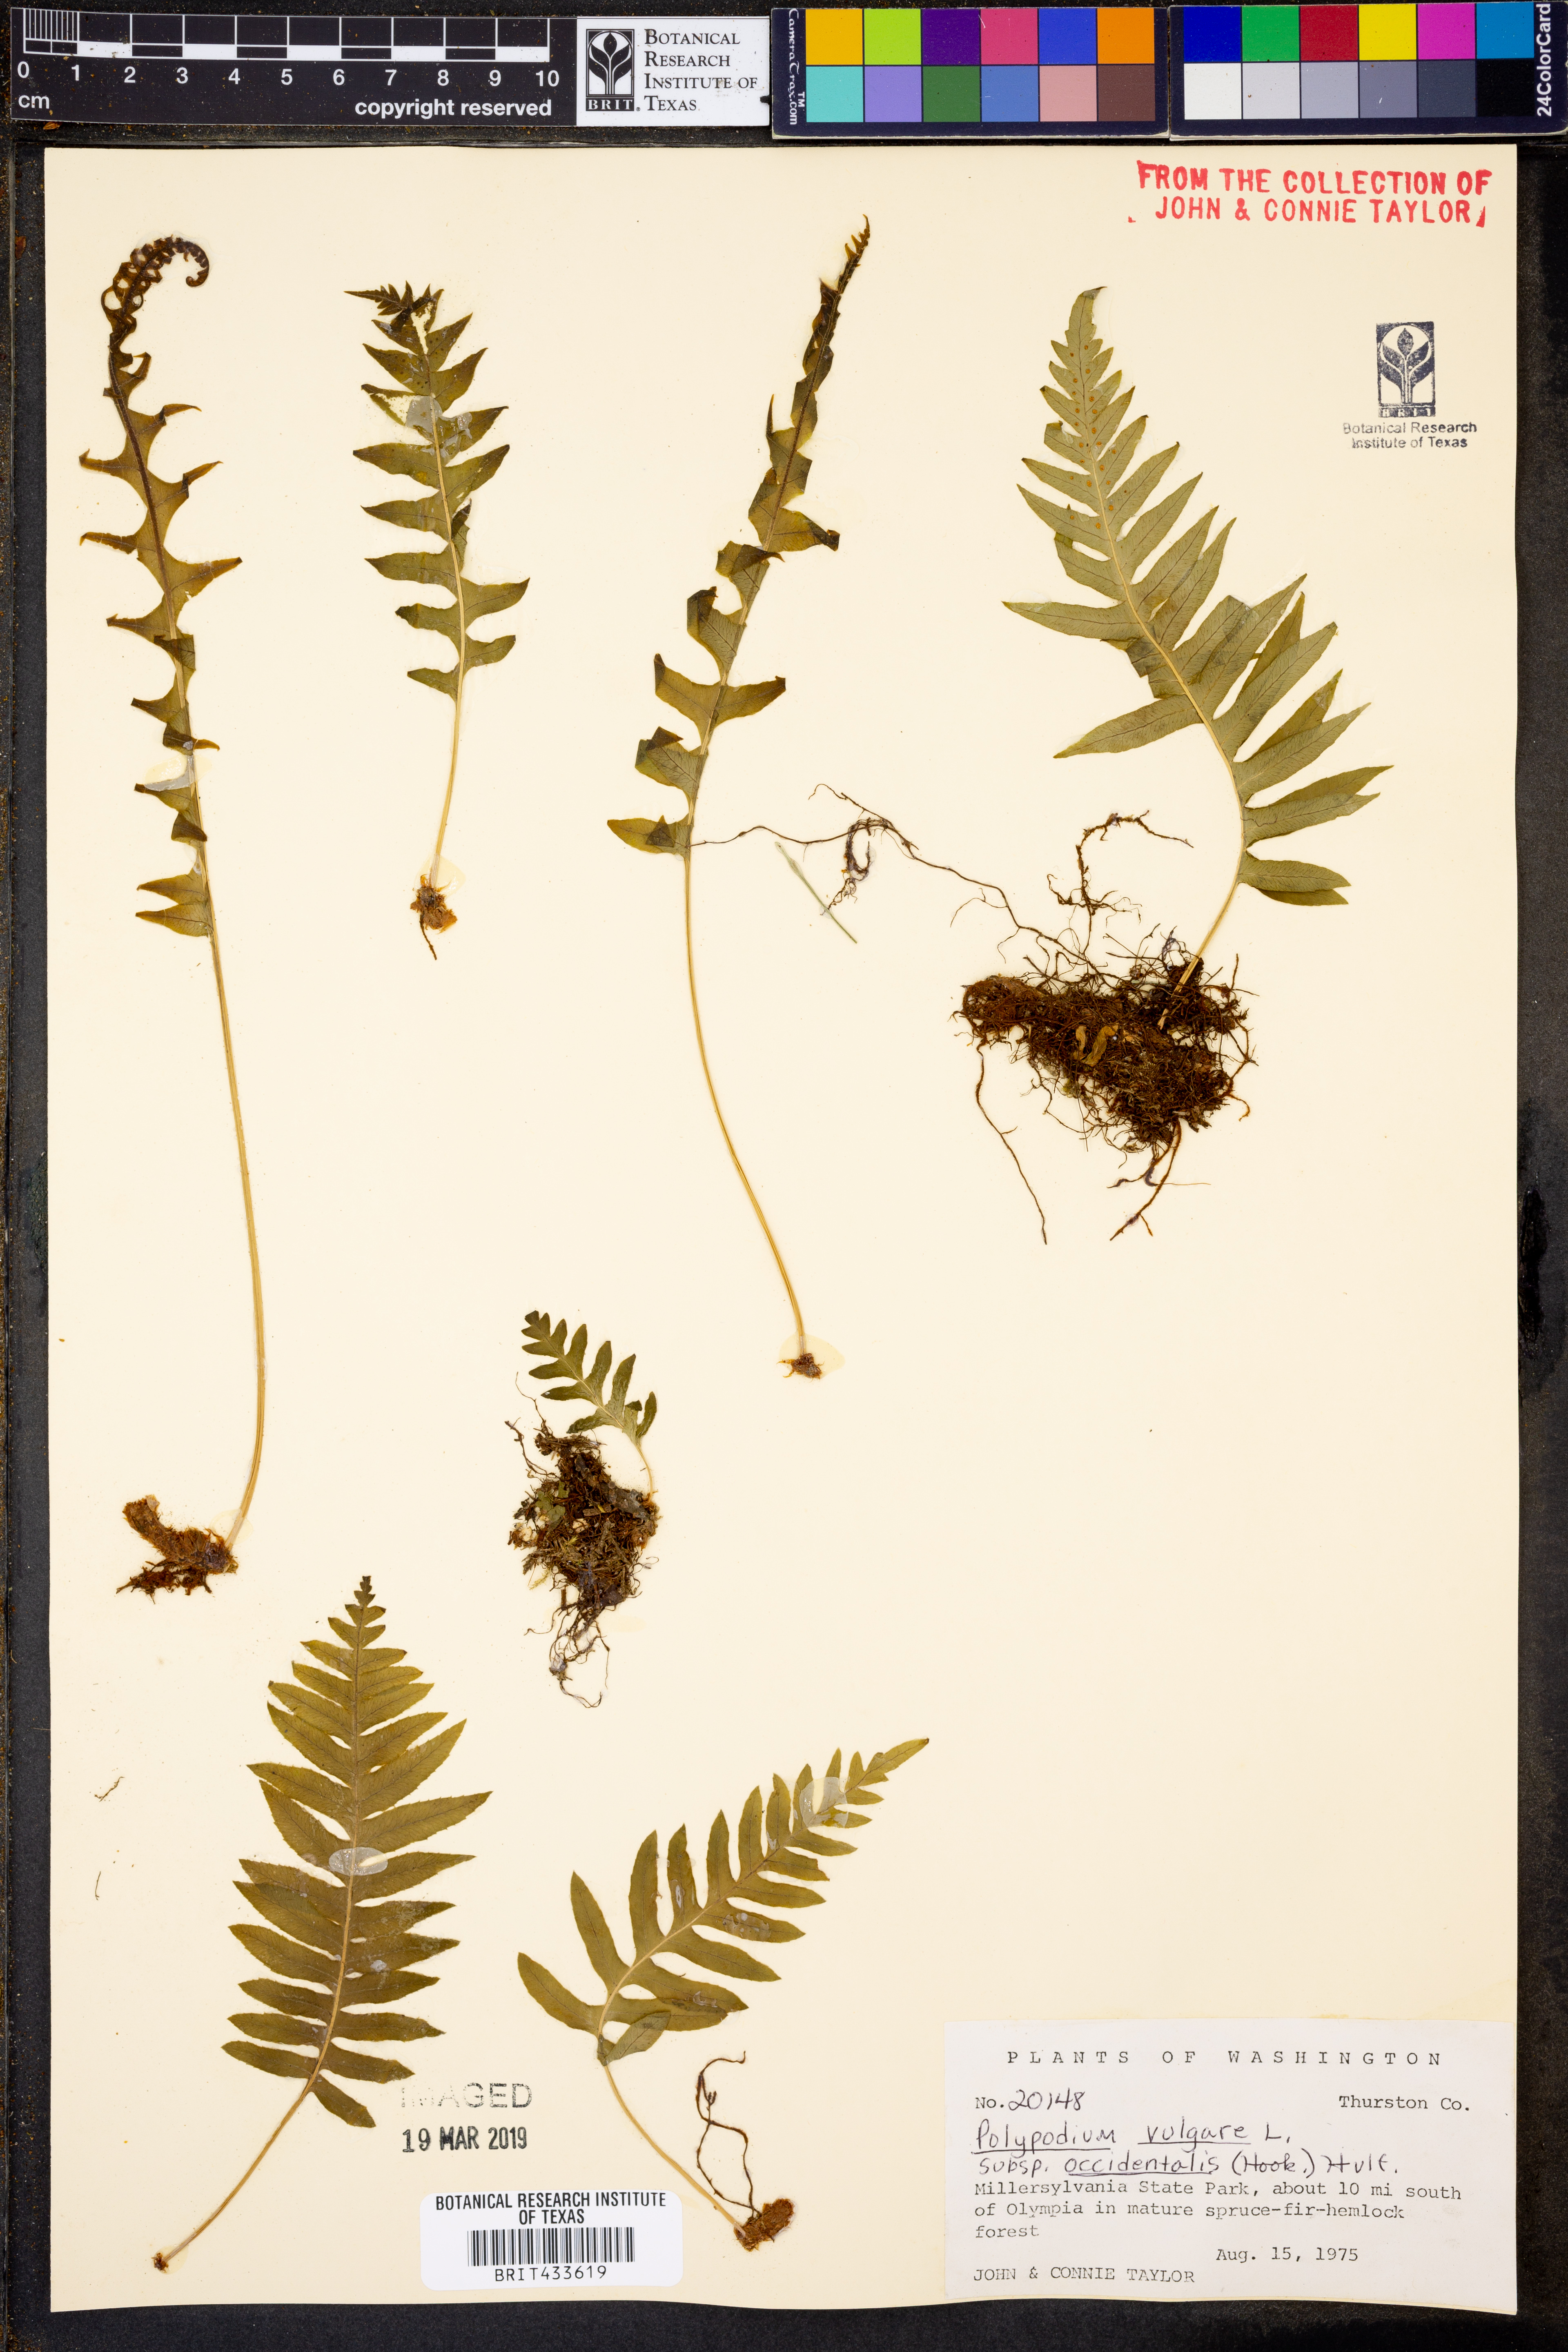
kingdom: Plantae
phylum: Tracheophyta
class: Polypodiopsida
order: Polypodiales
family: Polypodiaceae
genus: Polypodium
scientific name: Polypodium vulgare
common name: Common polypody
